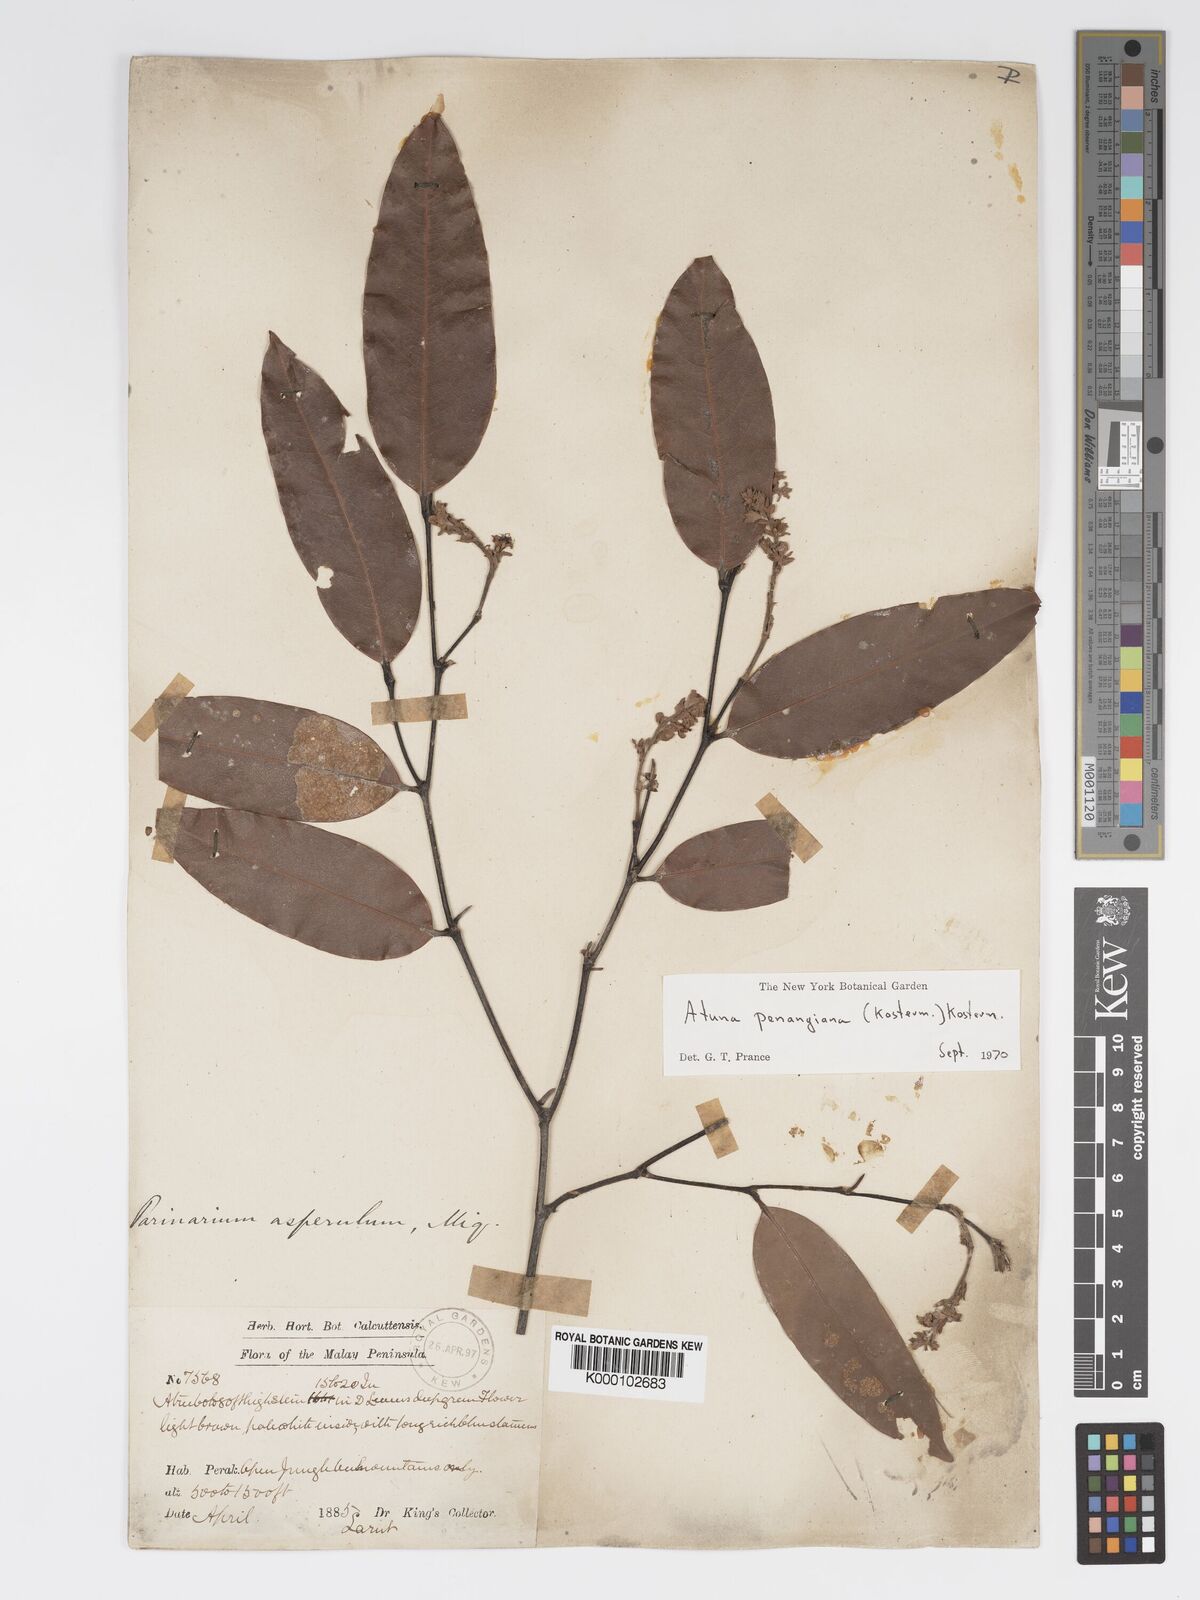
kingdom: Plantae
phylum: Tracheophyta
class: Magnoliopsida
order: Malpighiales
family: Chrysobalanaceae
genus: Atuna
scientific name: Atuna penangiana
